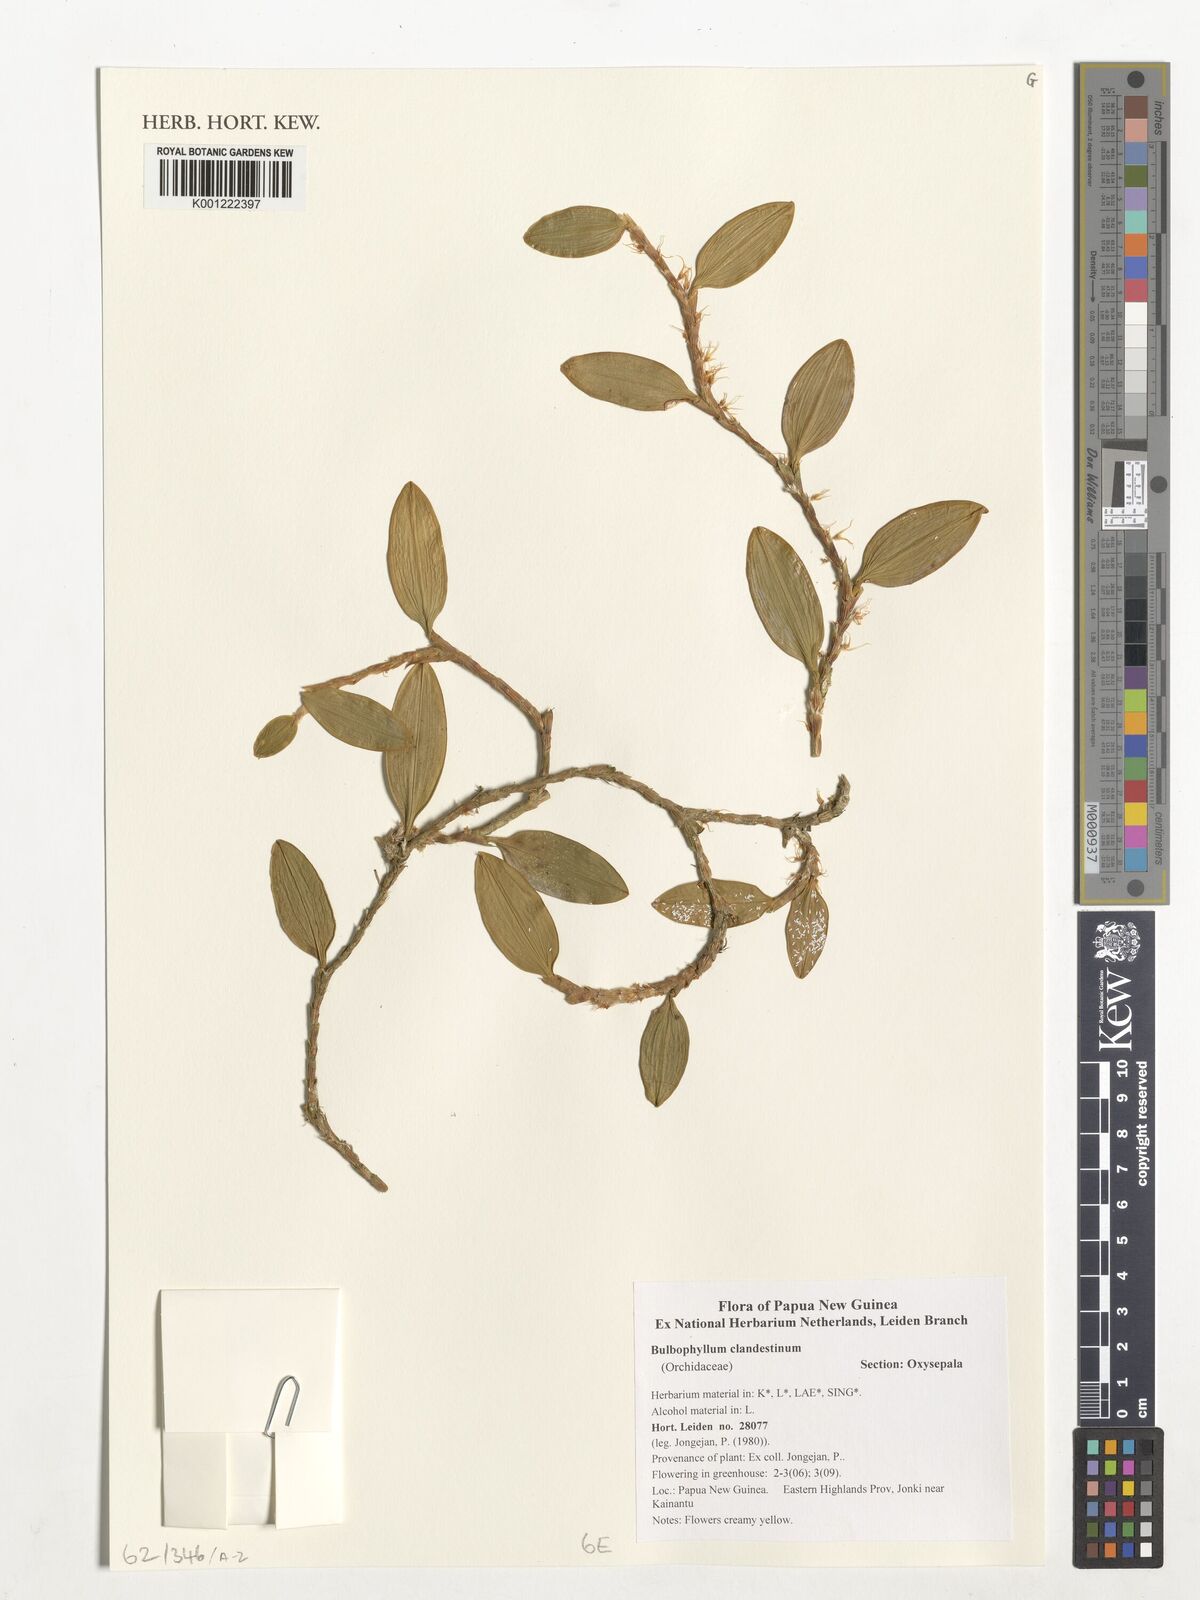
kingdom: Plantae
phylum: Tracheophyta
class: Liliopsida
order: Asparagales
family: Orchidaceae
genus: Bulbophyllum
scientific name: Bulbophyllum clandestinum
